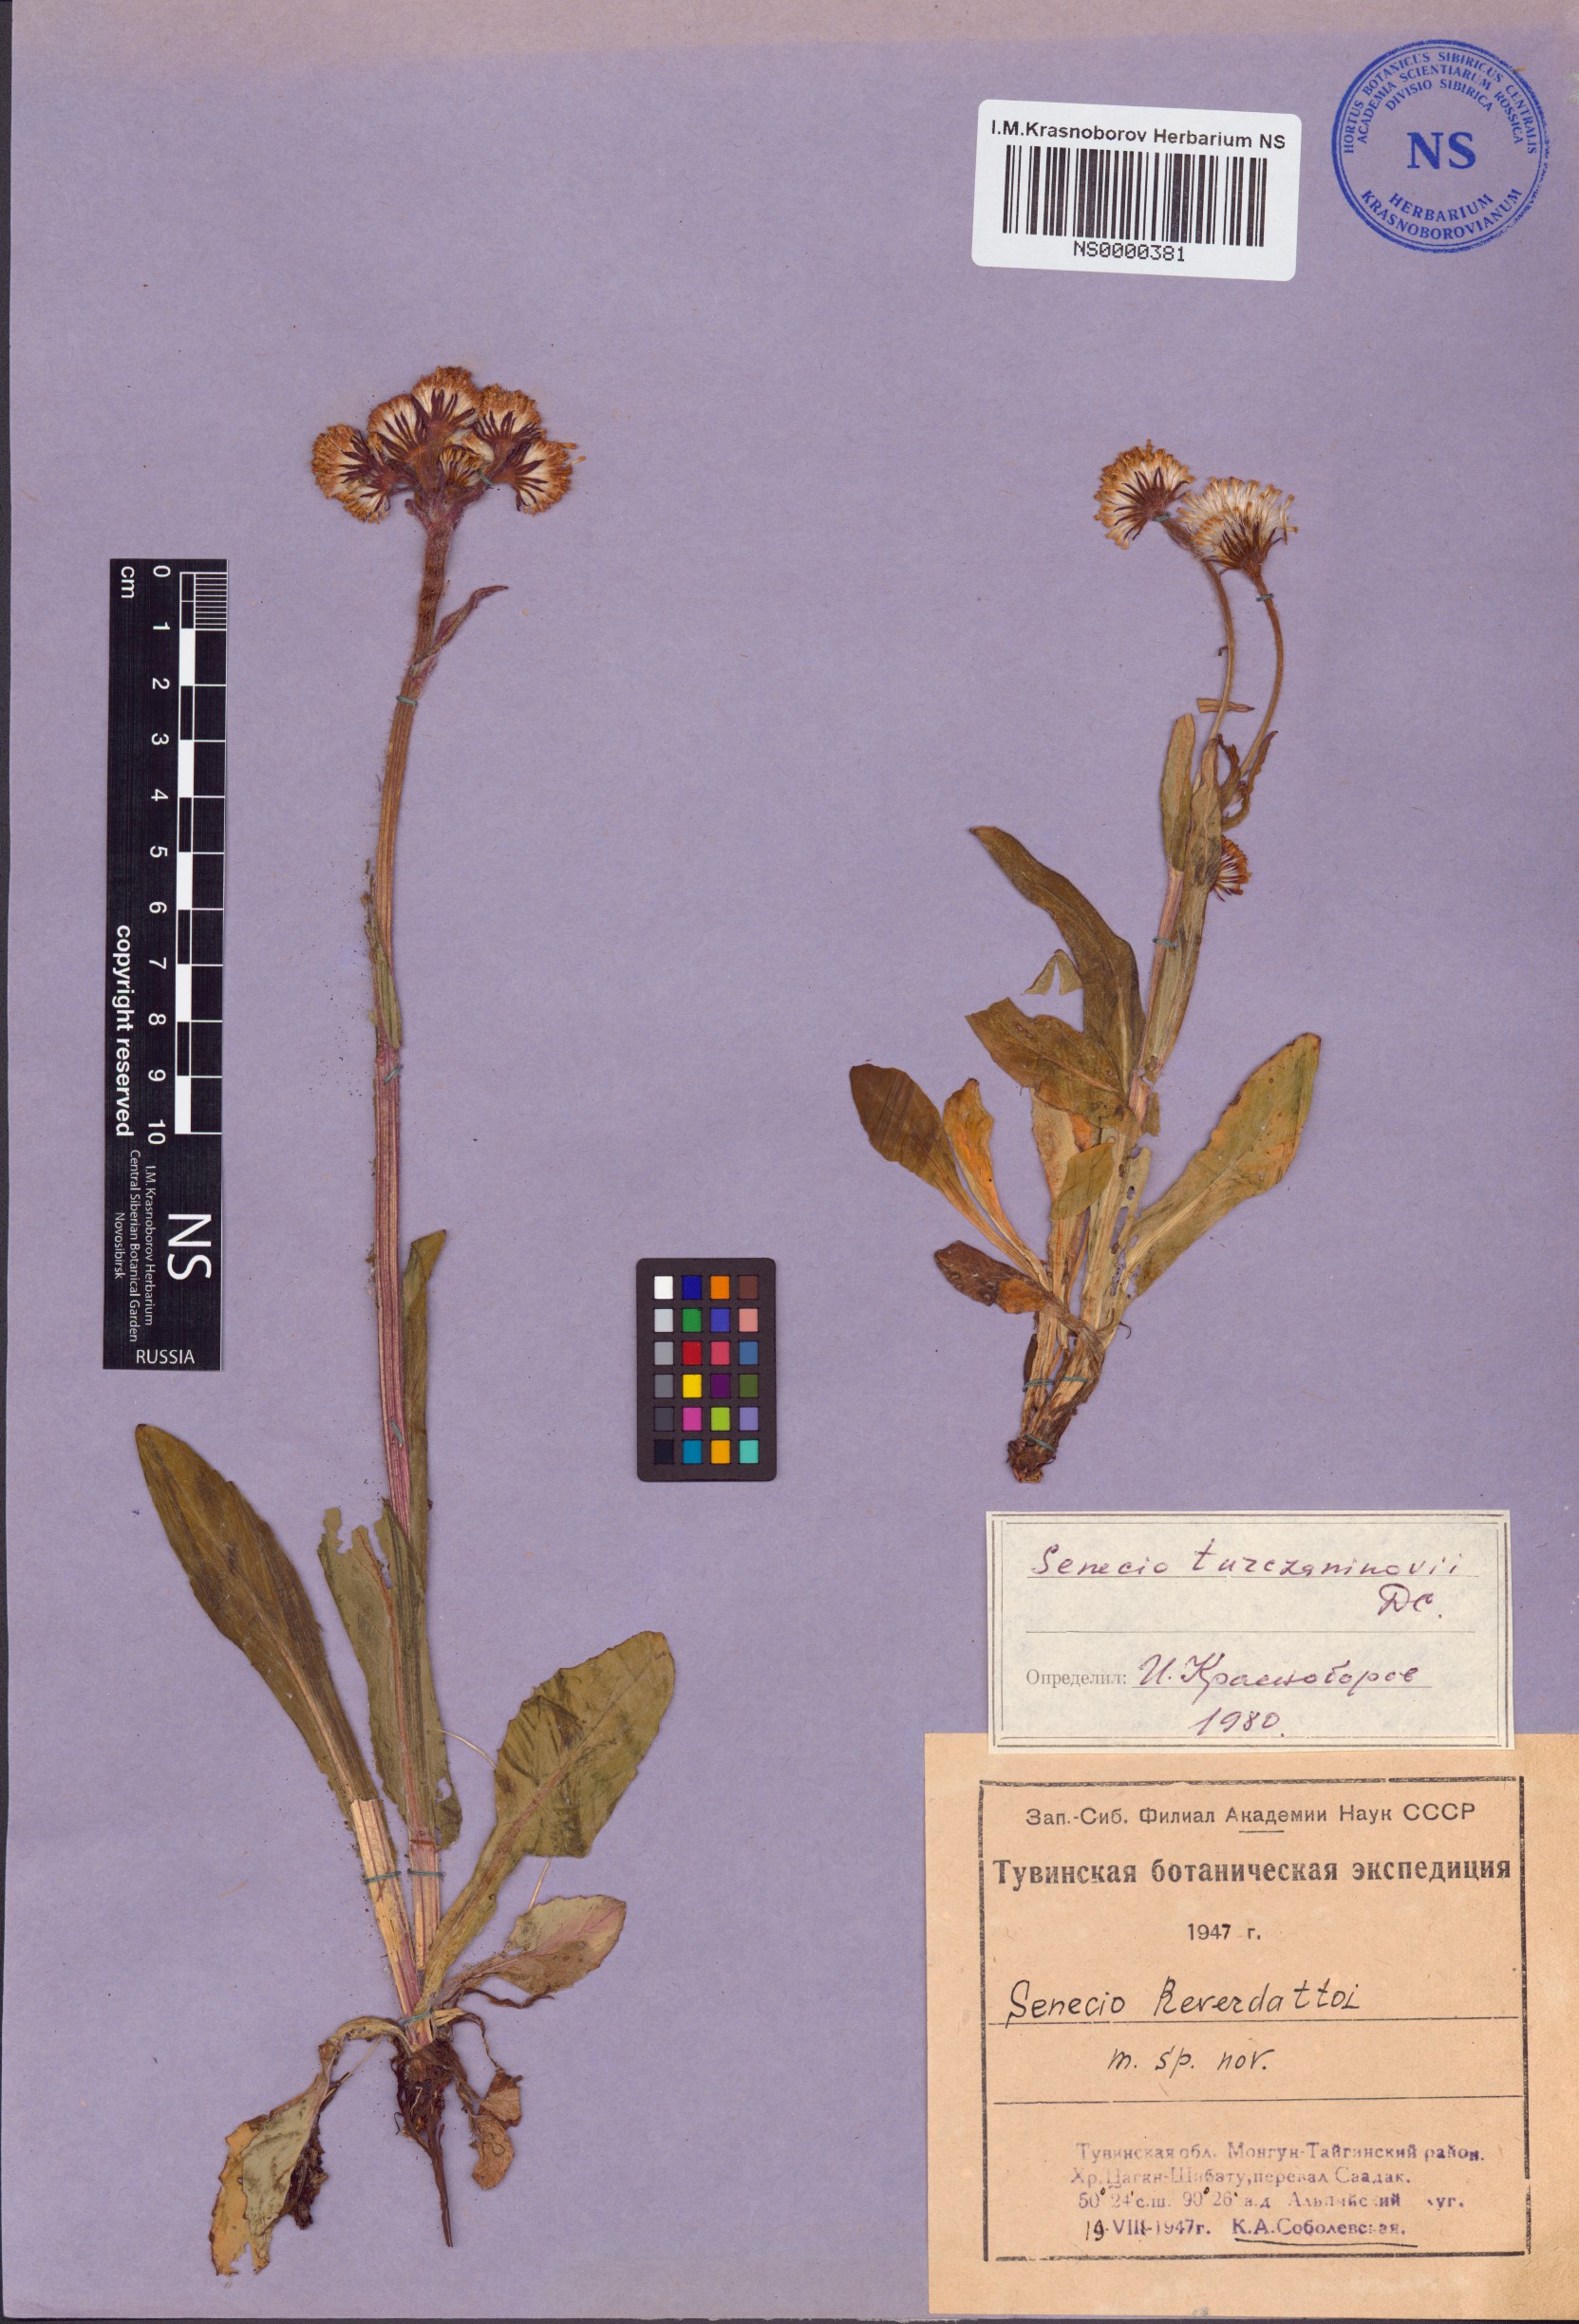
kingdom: Plantae
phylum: Tracheophyta
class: Magnoliopsida
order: Asterales
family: Asteraceae
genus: Tephroseris
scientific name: Tephroseris turczaninovii
